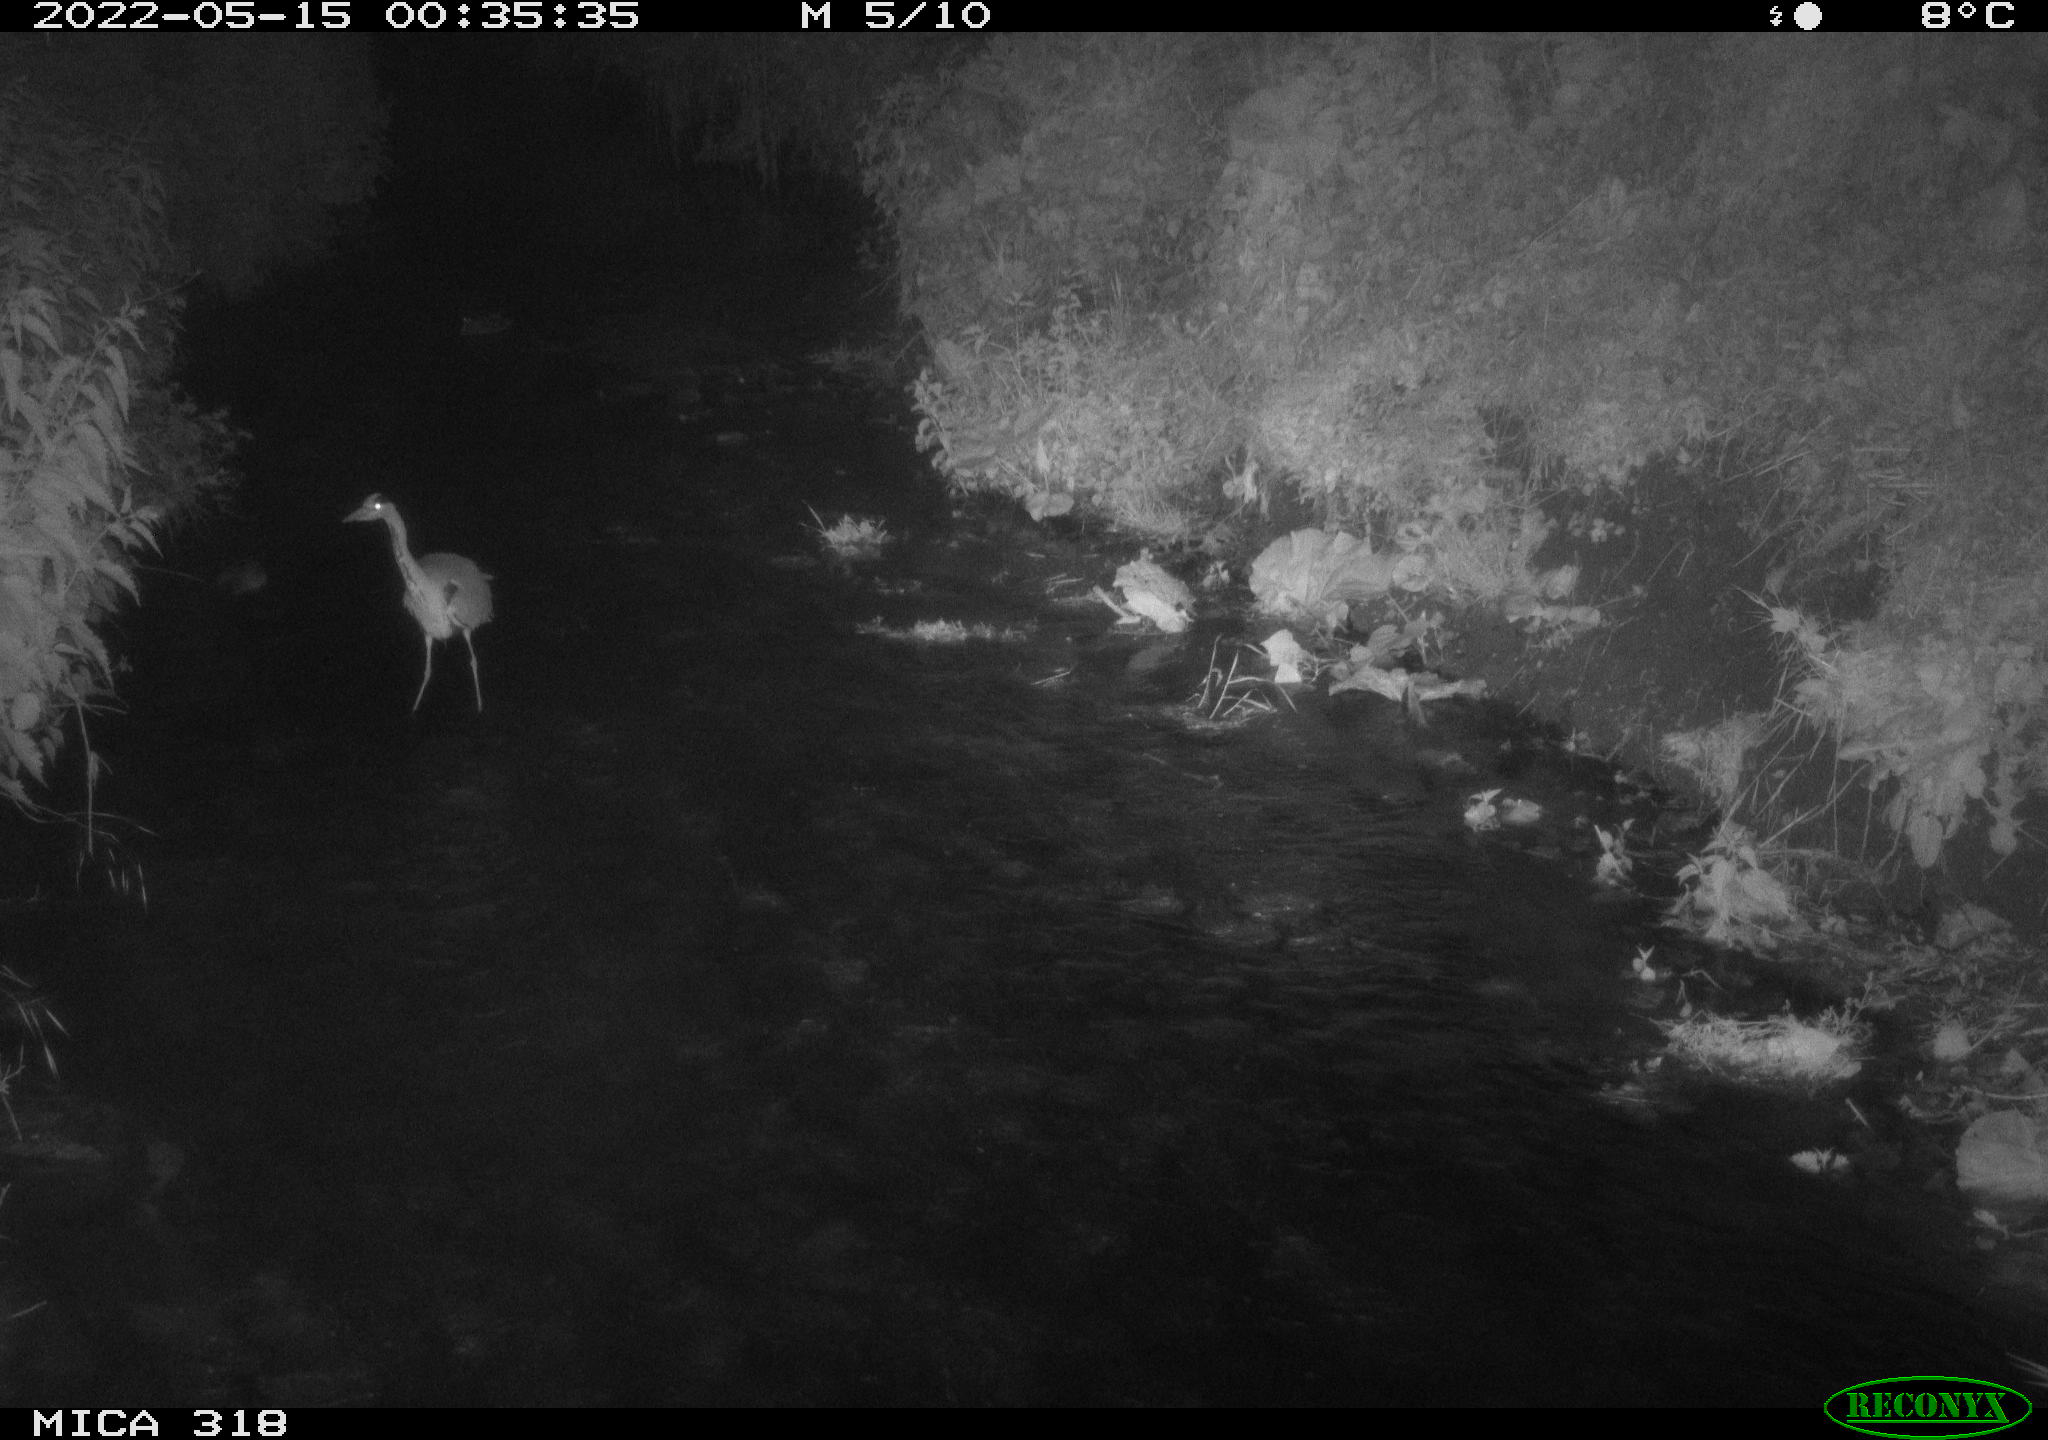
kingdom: Animalia
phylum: Chordata
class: Aves
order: Pelecaniformes
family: Ardeidae
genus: Ardea
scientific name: Ardea cinerea
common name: Grey heron
